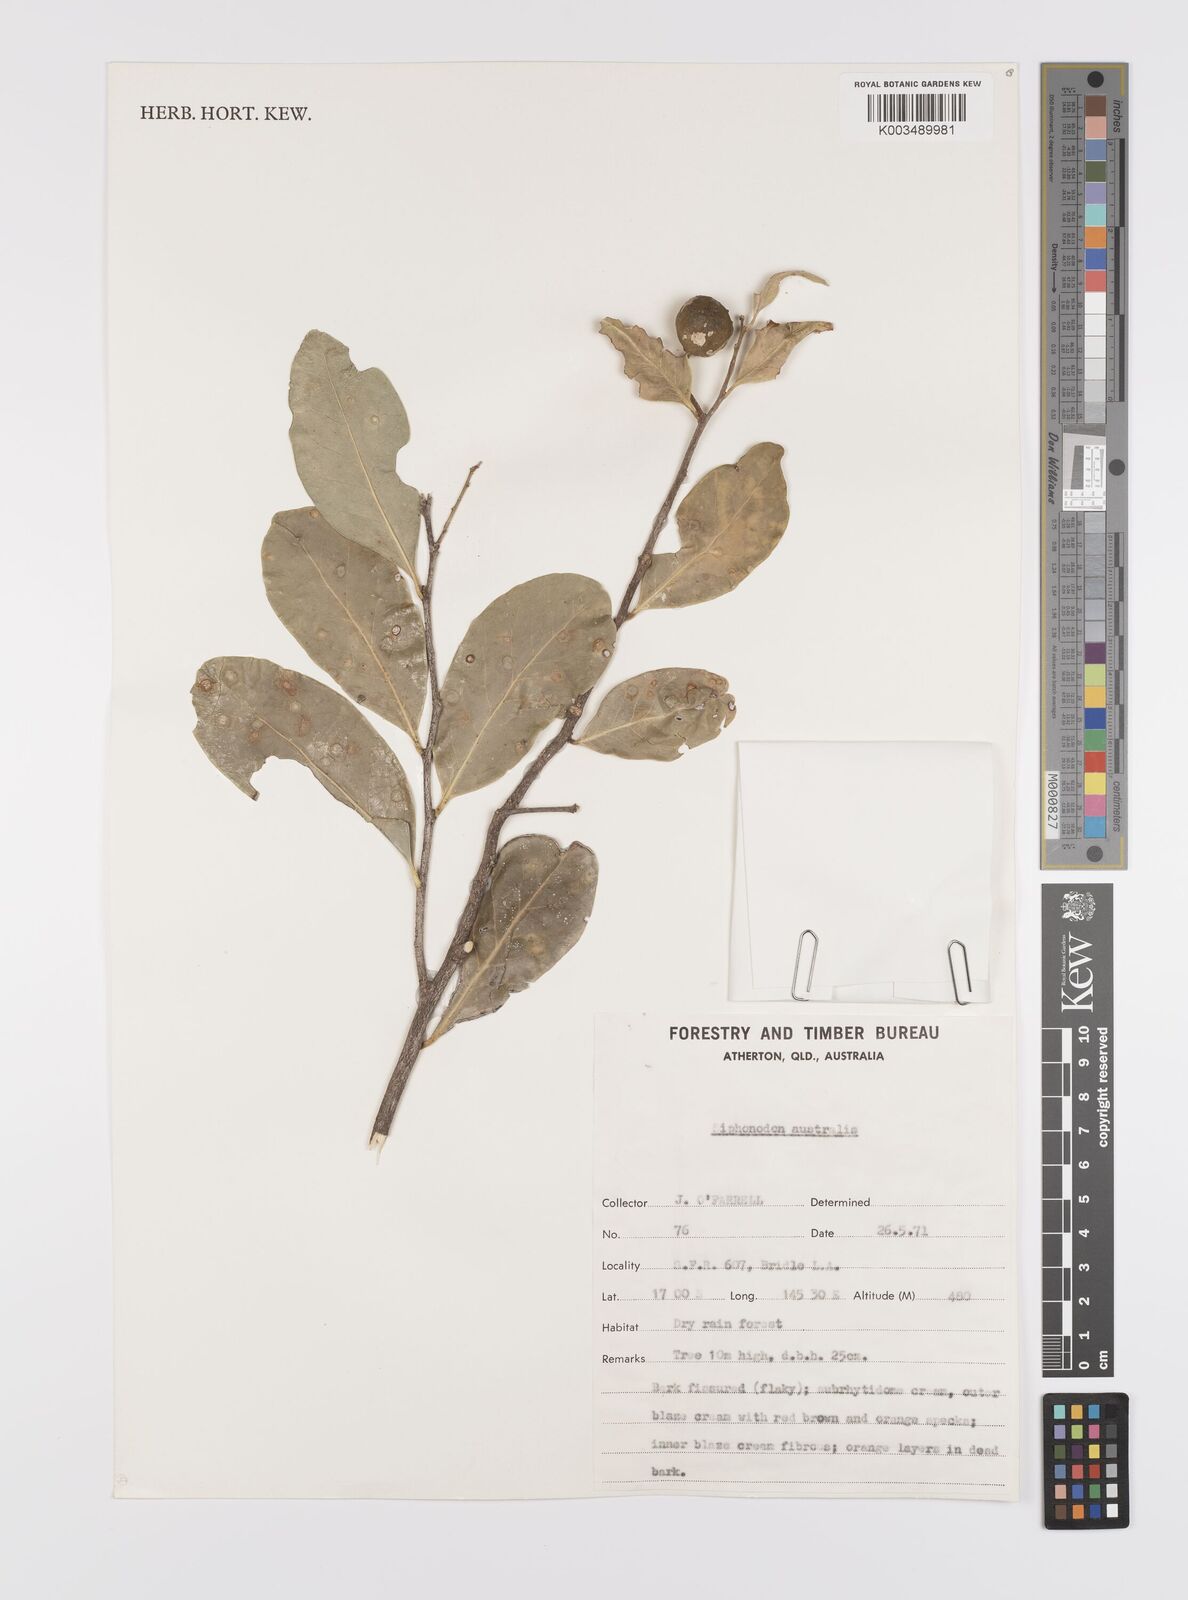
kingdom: Plantae
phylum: Tracheophyta
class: Magnoliopsida
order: Celastrales
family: Celastraceae
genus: Siphonodon
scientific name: Siphonodon australis
